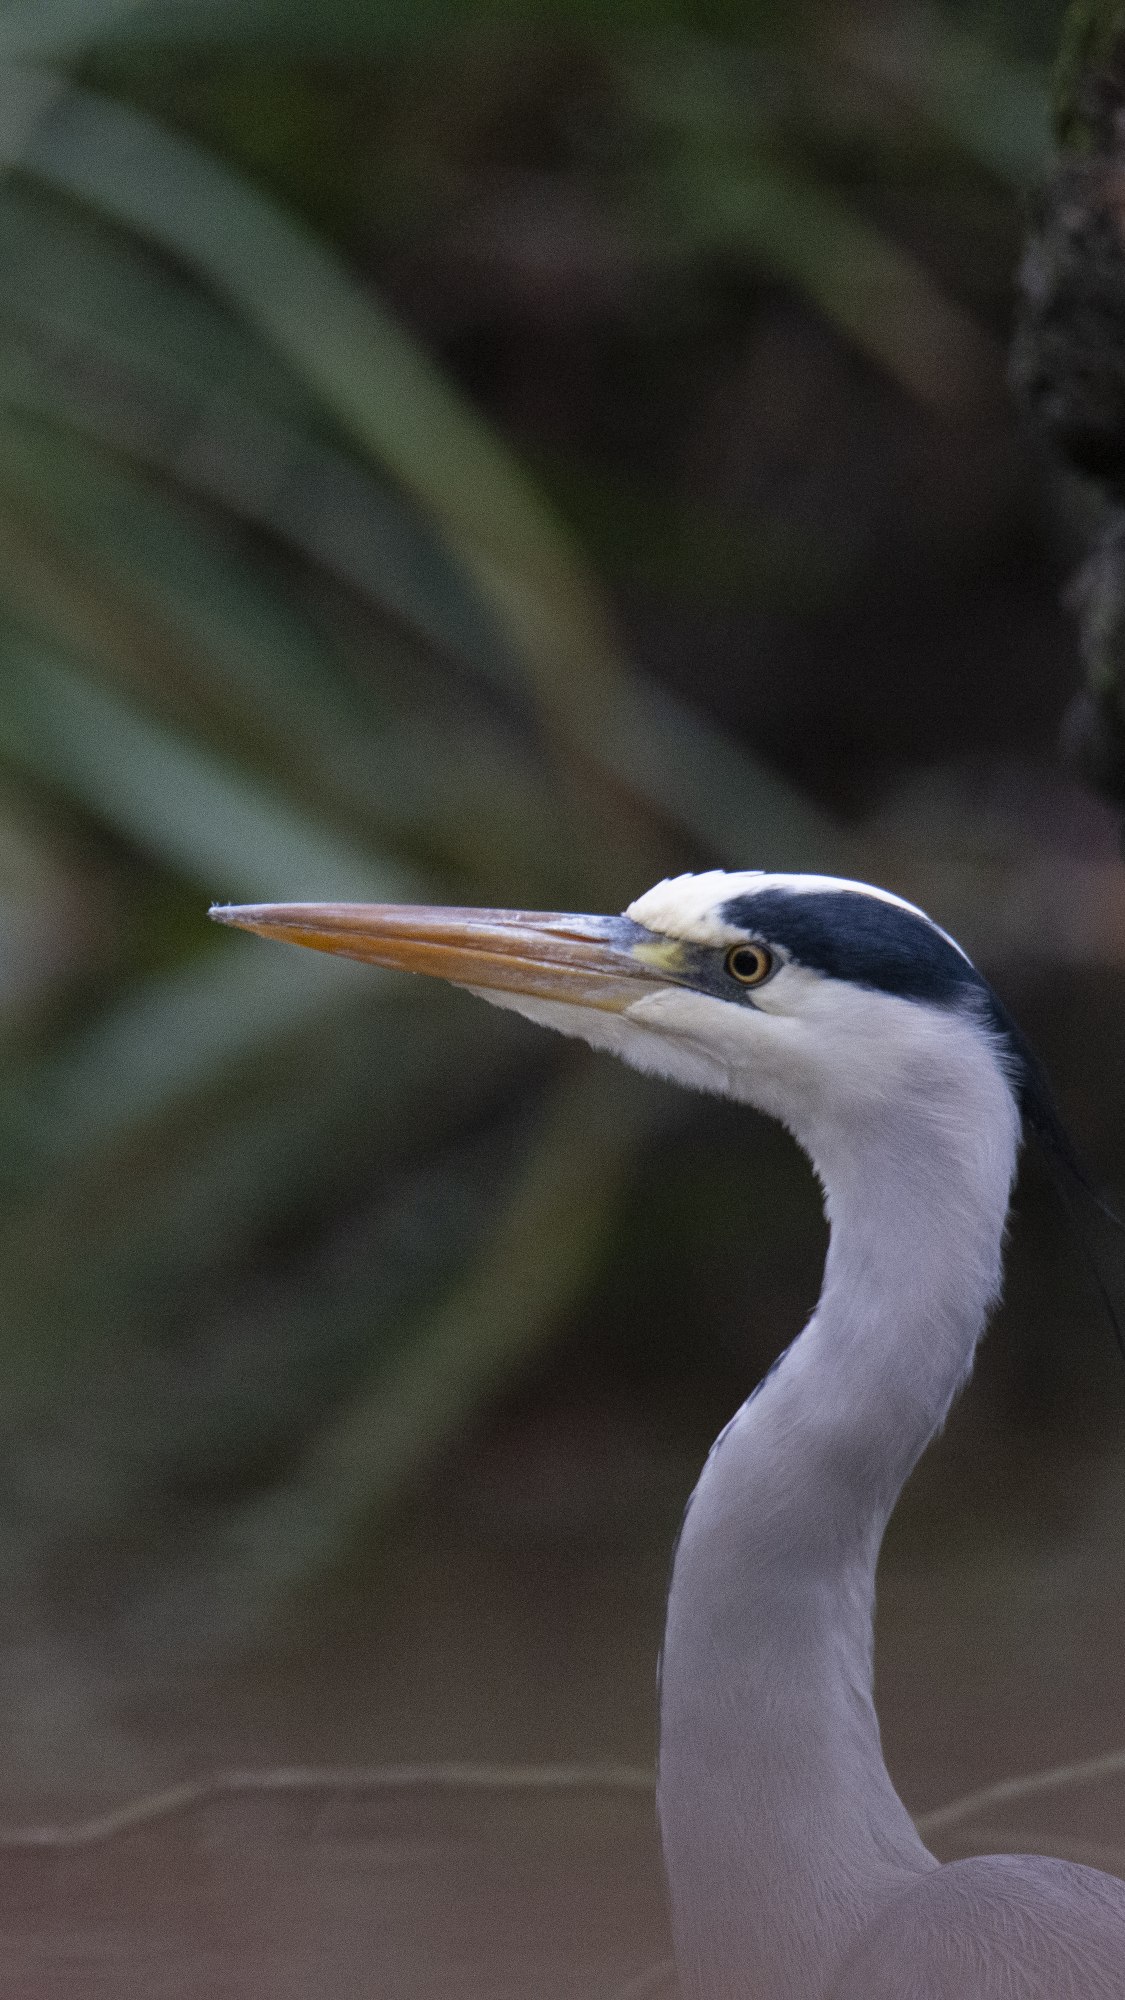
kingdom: Animalia
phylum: Chordata
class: Aves
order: Pelecaniformes
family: Ardeidae
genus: Ardea
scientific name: Ardea cinerea
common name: Fiskehejre
